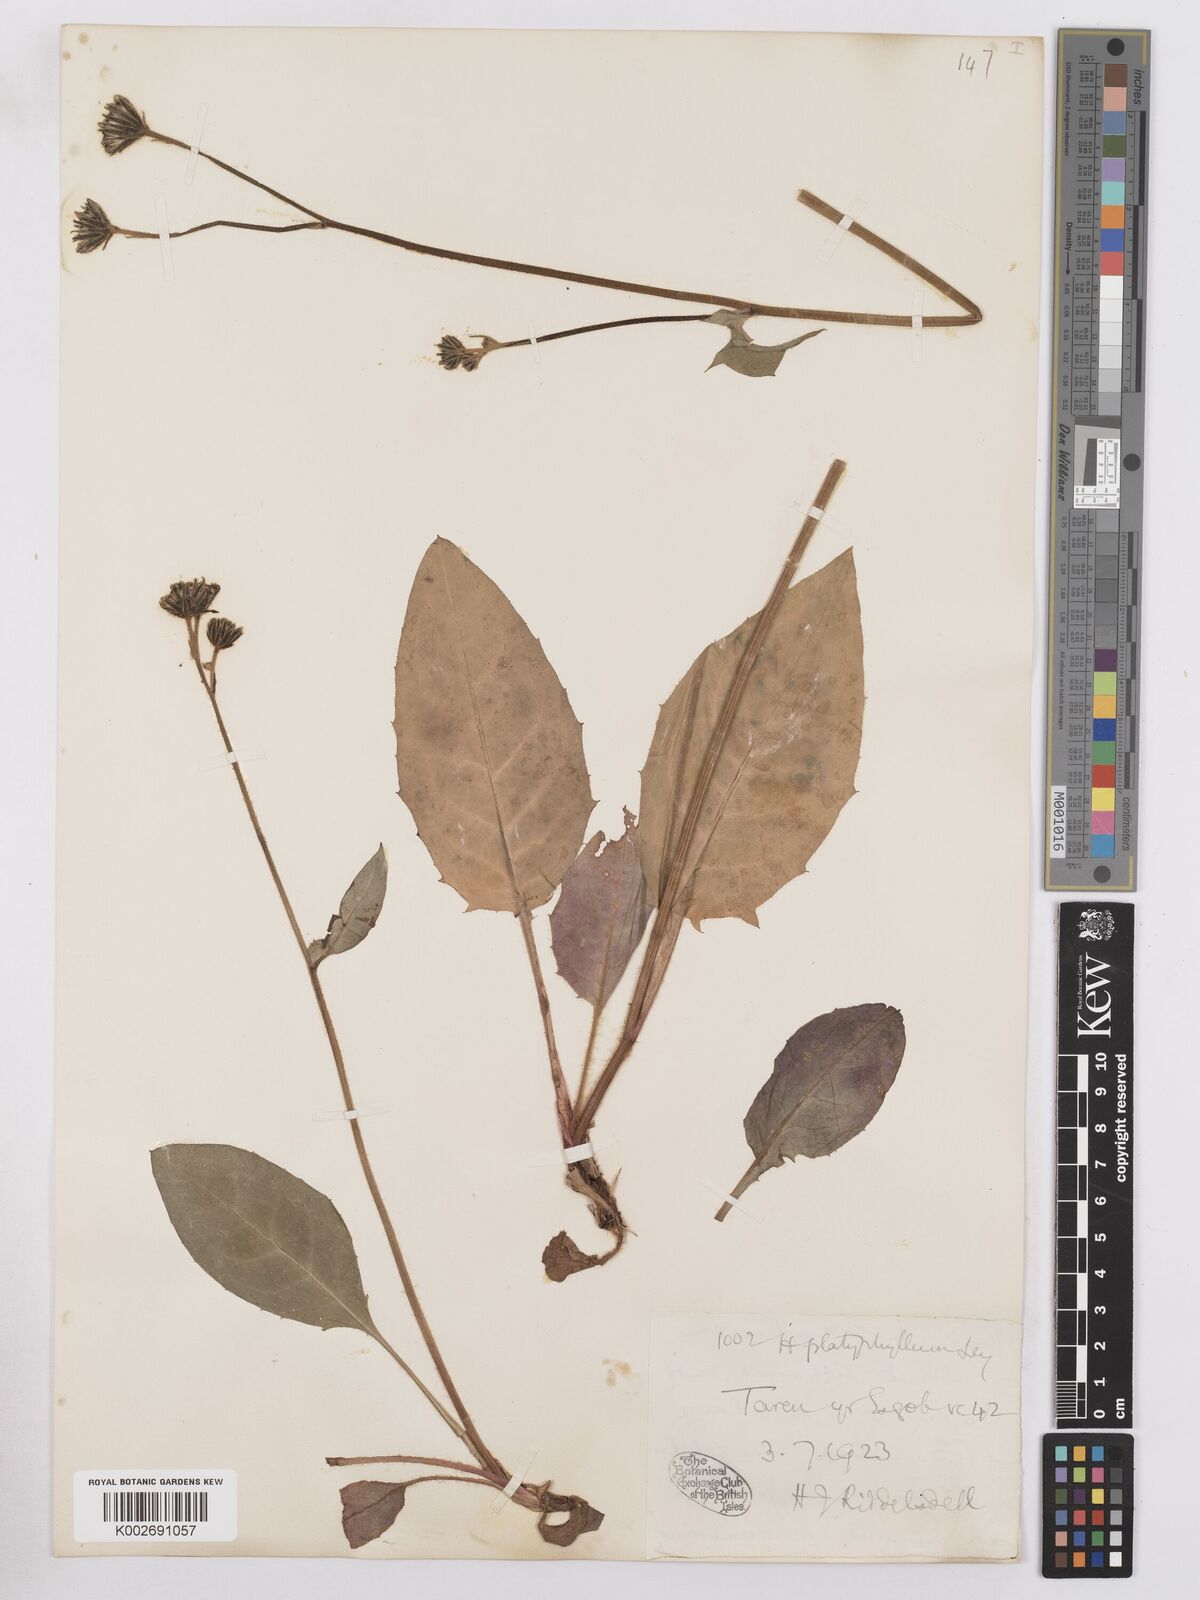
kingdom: Plantae
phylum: Tracheophyta
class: Magnoliopsida
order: Asterales
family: Asteraceae
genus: Hieracium
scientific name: Hieracium leyanum
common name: Fat-leaved hawkweed
